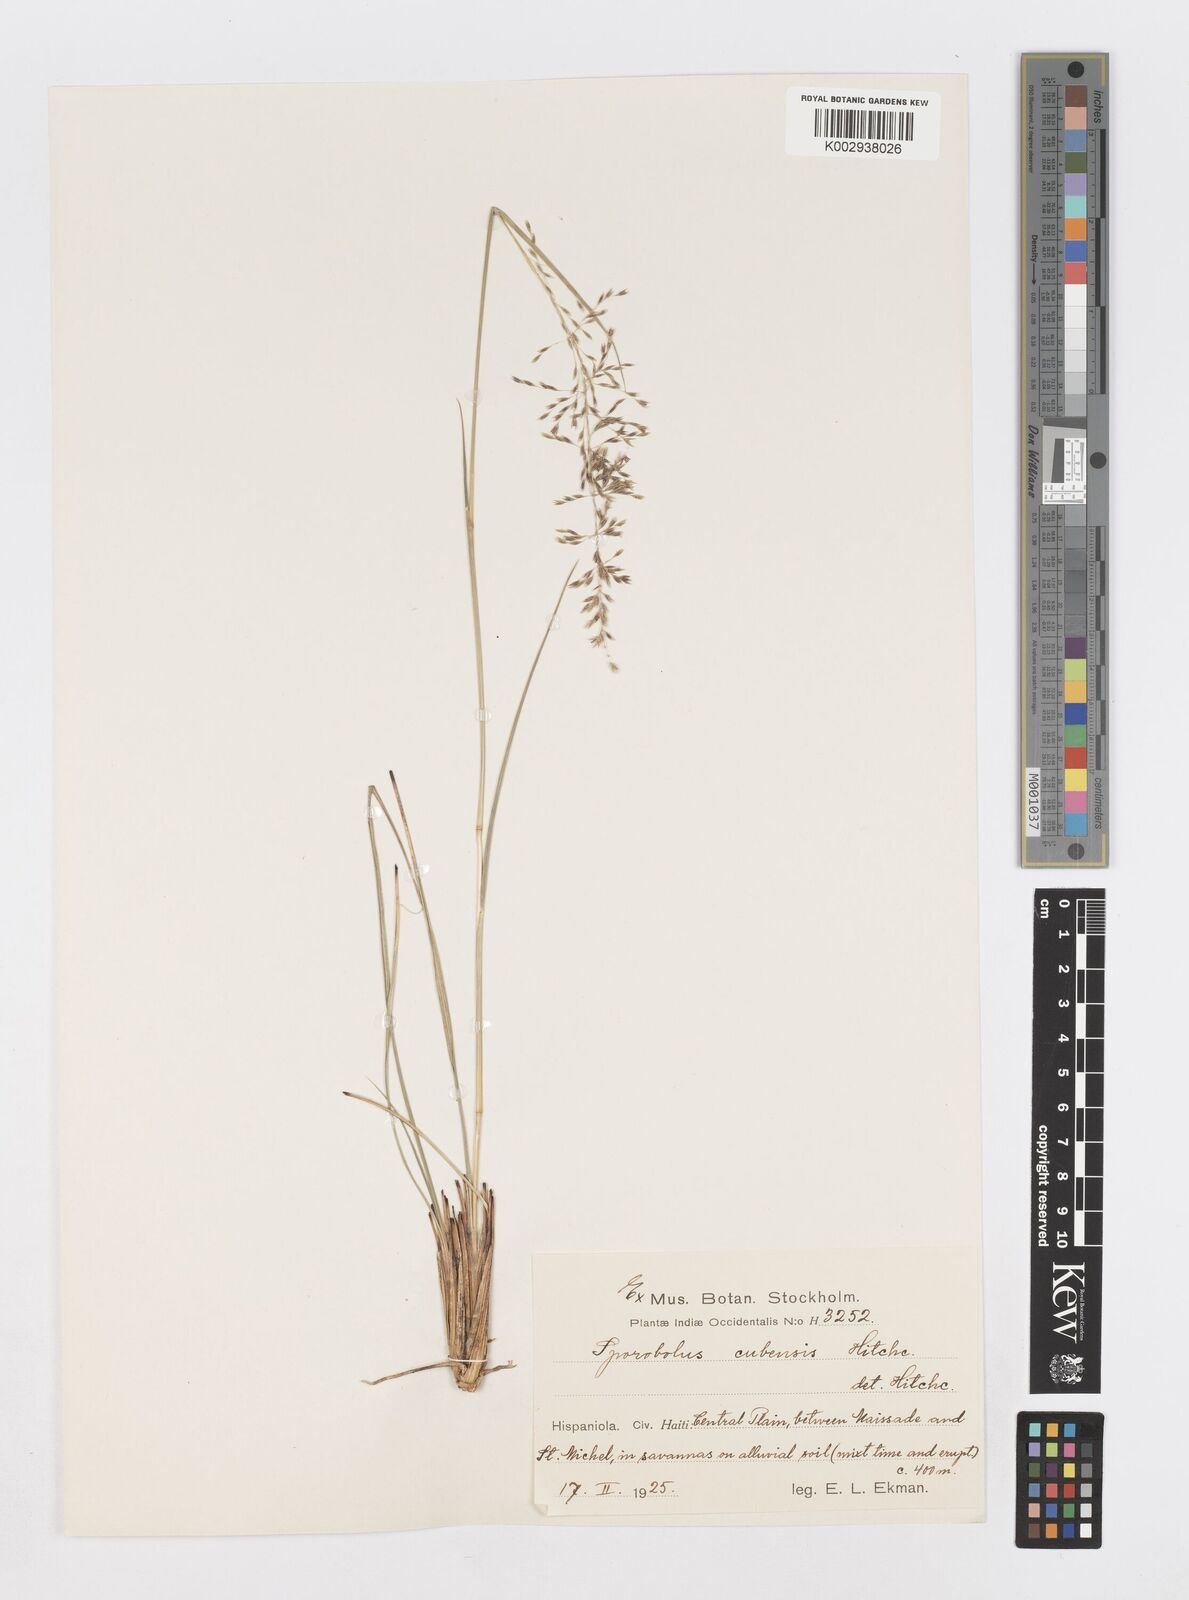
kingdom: Plantae
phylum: Tracheophyta
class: Liliopsida
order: Poales
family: Poaceae
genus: Sporobolus
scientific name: Sporobolus cubensis
